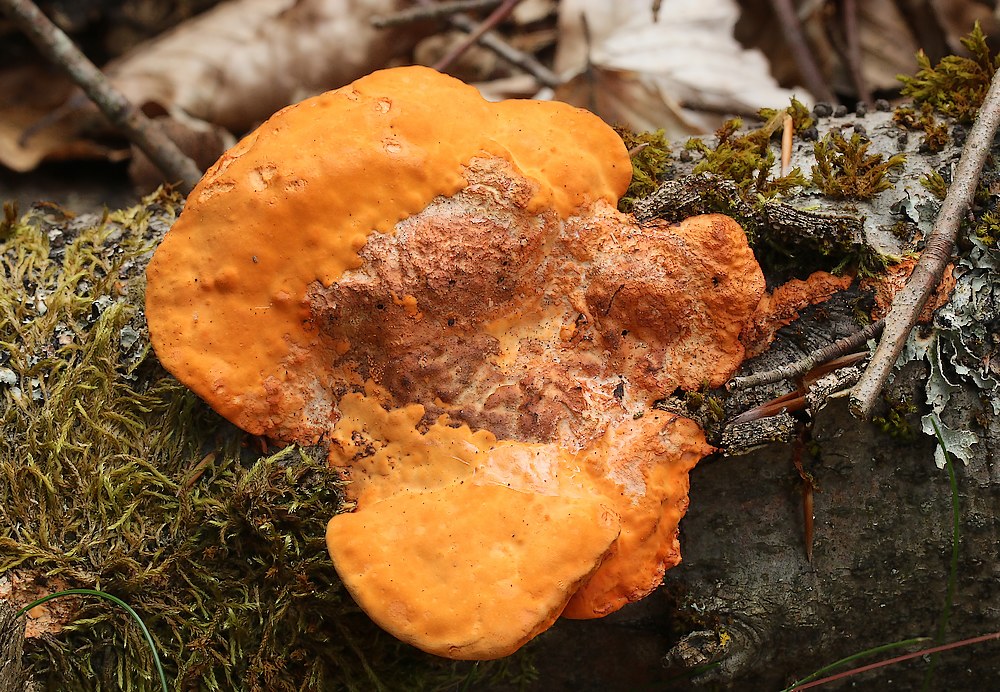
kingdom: Fungi
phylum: Basidiomycota
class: Agaricomycetes
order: Polyporales
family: Polyporaceae
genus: Trametes
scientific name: Trametes cinnabarina
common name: cinnoberporesvamp
